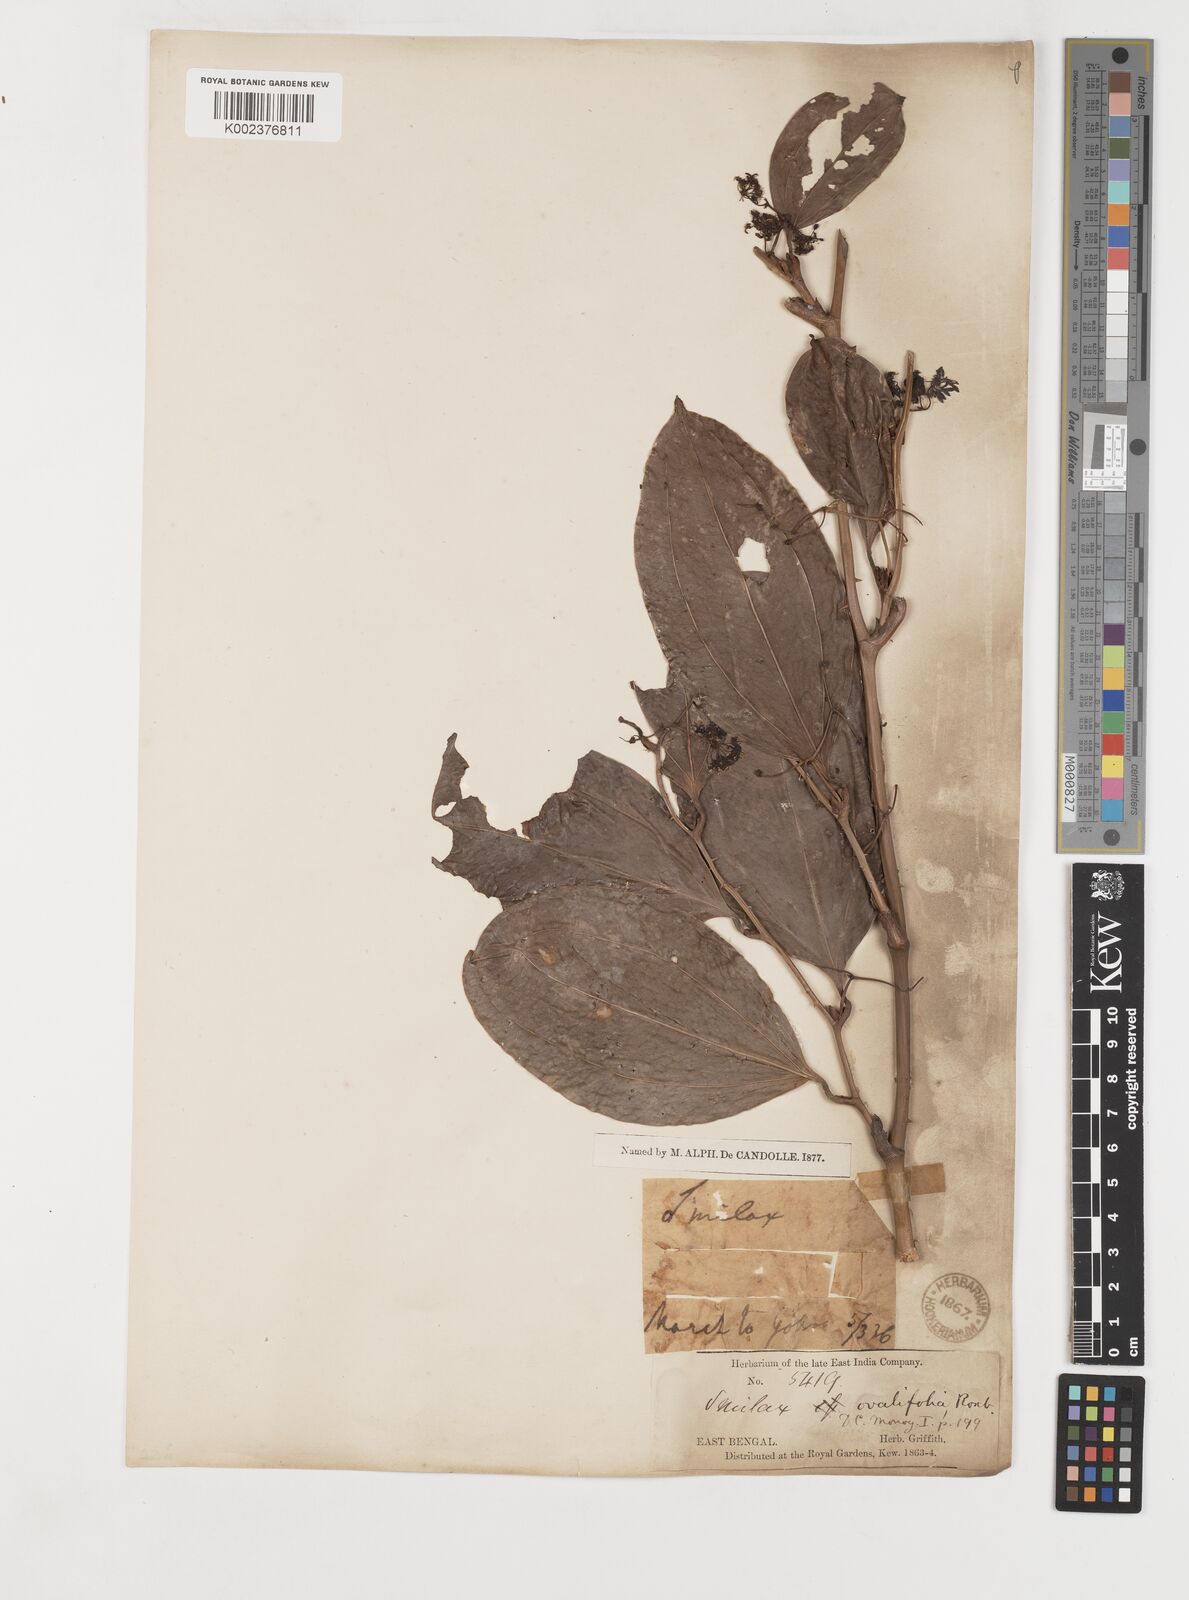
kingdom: Plantae
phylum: Tracheophyta
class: Liliopsida
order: Liliales
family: Smilacaceae
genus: Smilax
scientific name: Smilax prolifera
